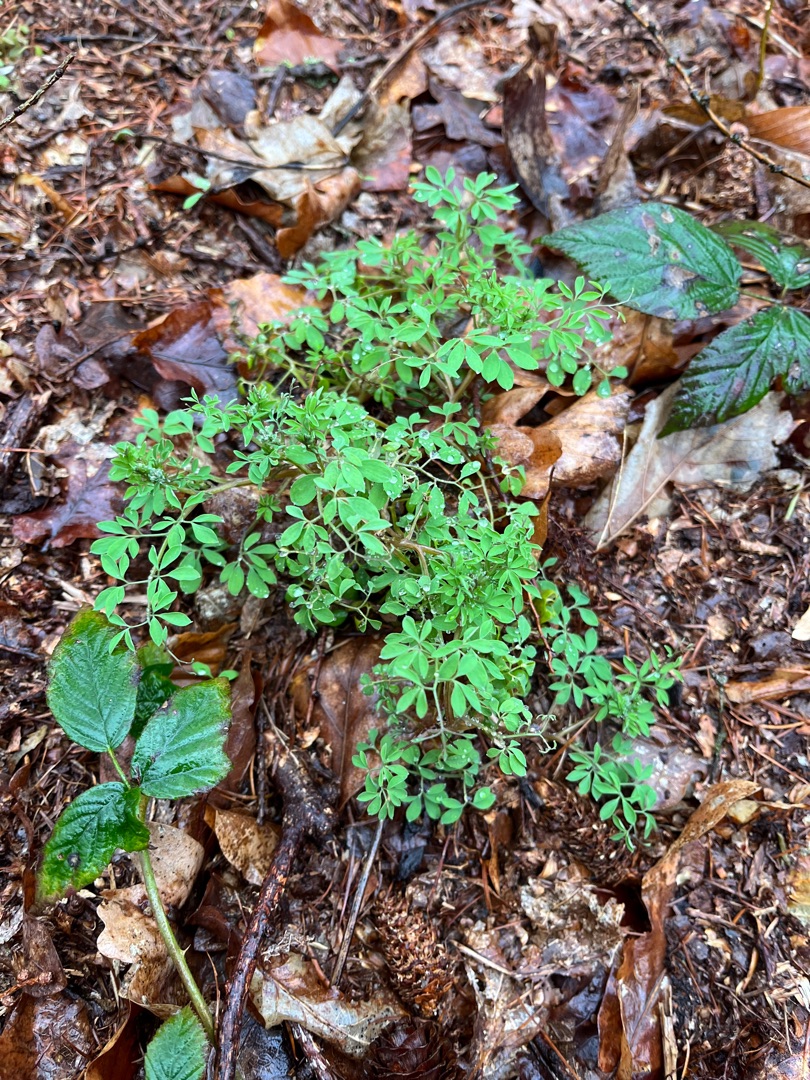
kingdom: Plantae
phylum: Tracheophyta
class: Magnoliopsida
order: Ranunculales
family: Papaveraceae
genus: Ceratocapnos
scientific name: Ceratocapnos claviculata
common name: Klatrende lærkespore
